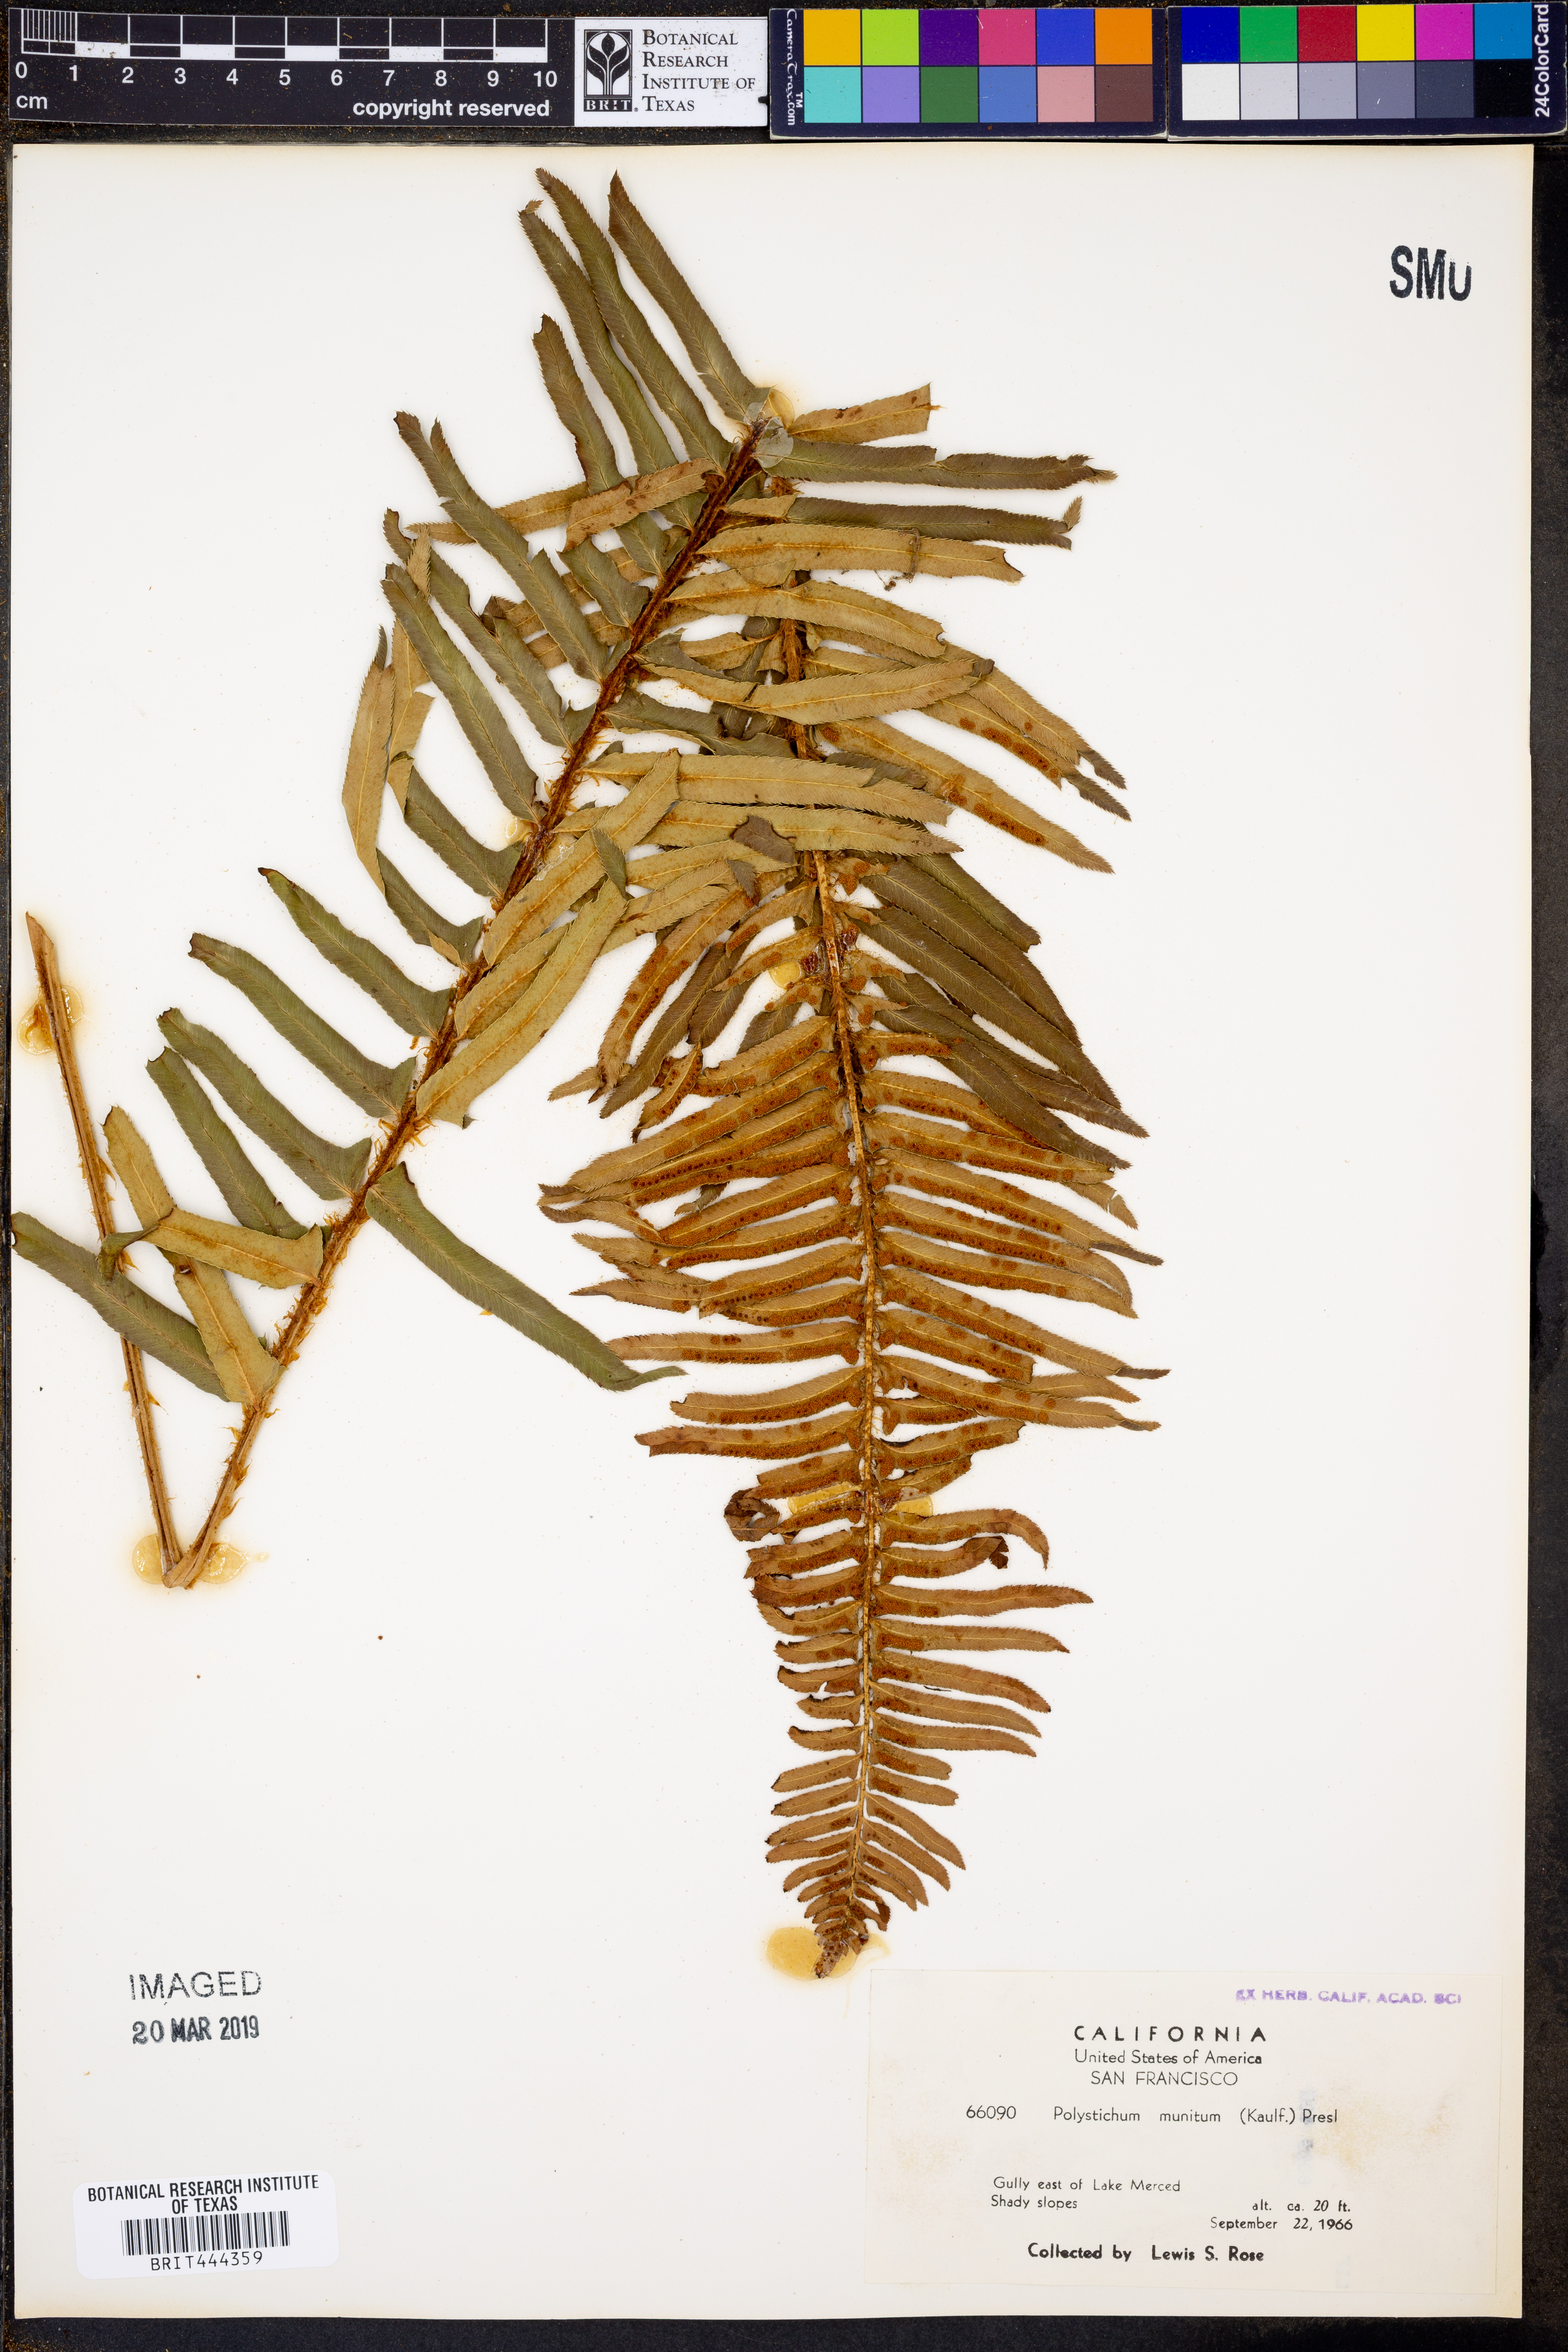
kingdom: Plantae
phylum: Tracheophyta
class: Polypodiopsida
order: Polypodiales
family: Dryopteridaceae
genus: Polystichum
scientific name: Polystichum munitum
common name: Western sword-fern
